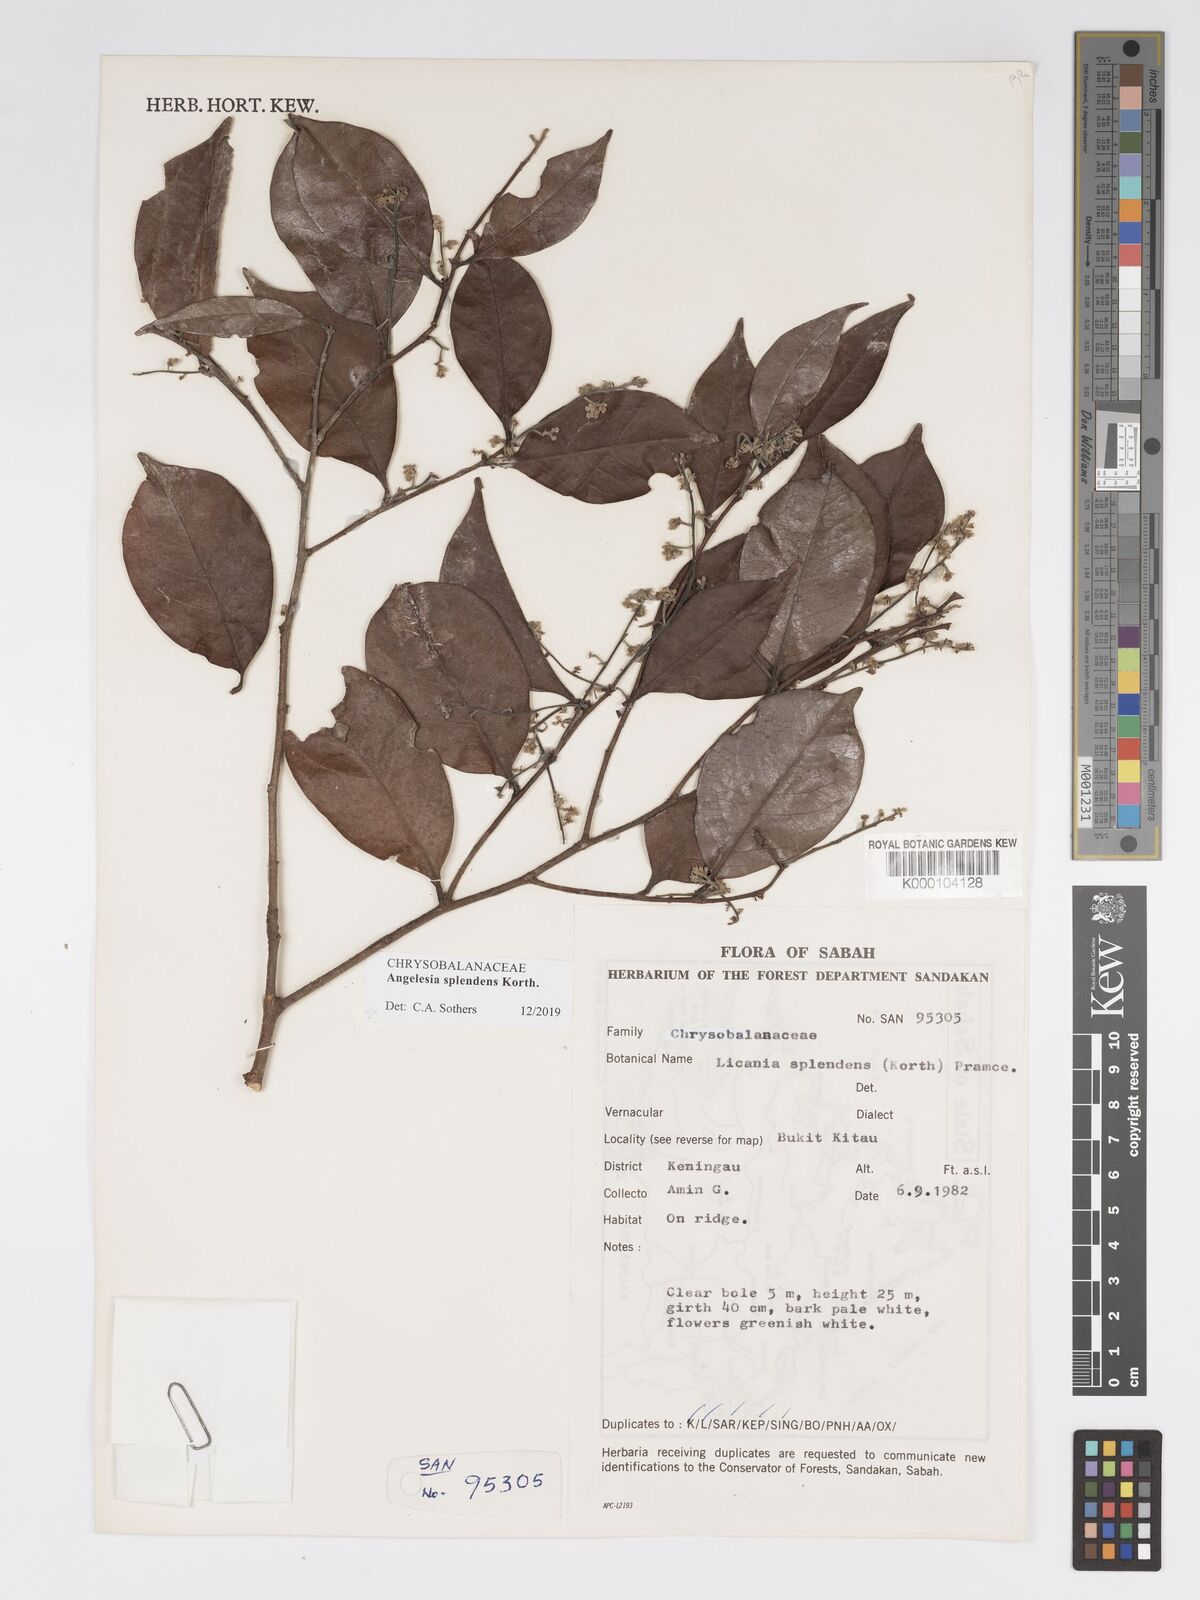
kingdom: Plantae
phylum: Tracheophyta
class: Magnoliopsida
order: Malpighiales
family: Chrysobalanaceae
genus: Angelesia
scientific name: Angelesia splendens
